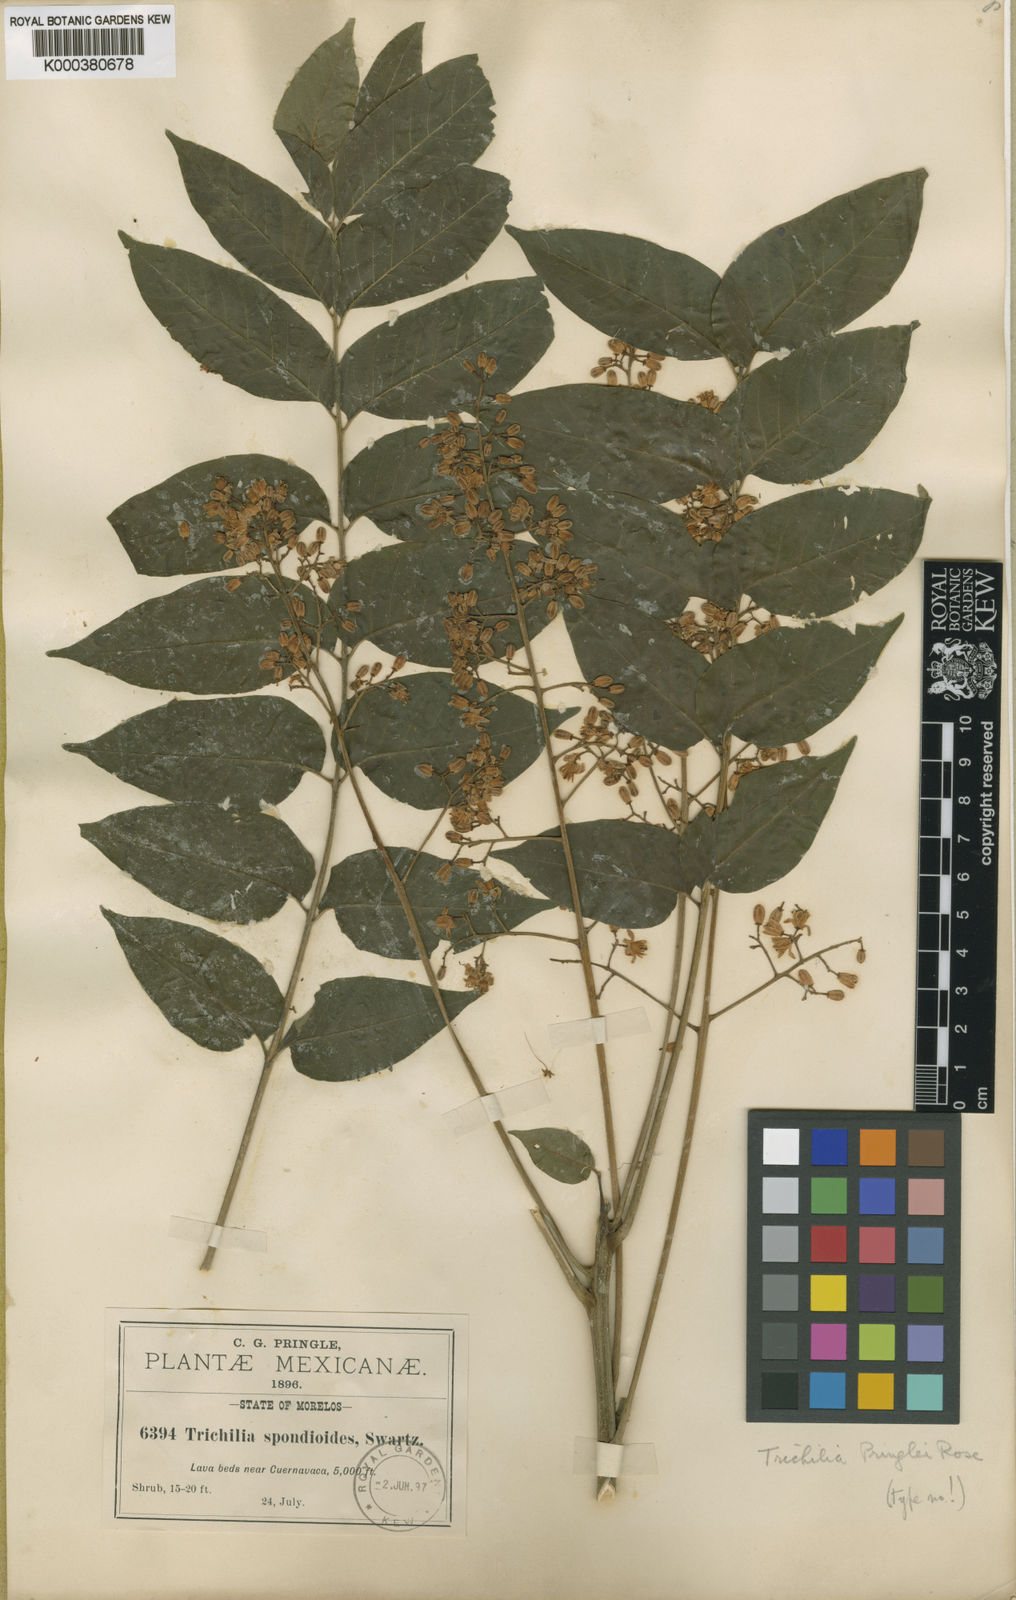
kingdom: Plantae
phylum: Tracheophyta
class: Magnoliopsida
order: Sapindales
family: Meliaceae
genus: Trichilia
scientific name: Trichilia hirta
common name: Red-cedar
